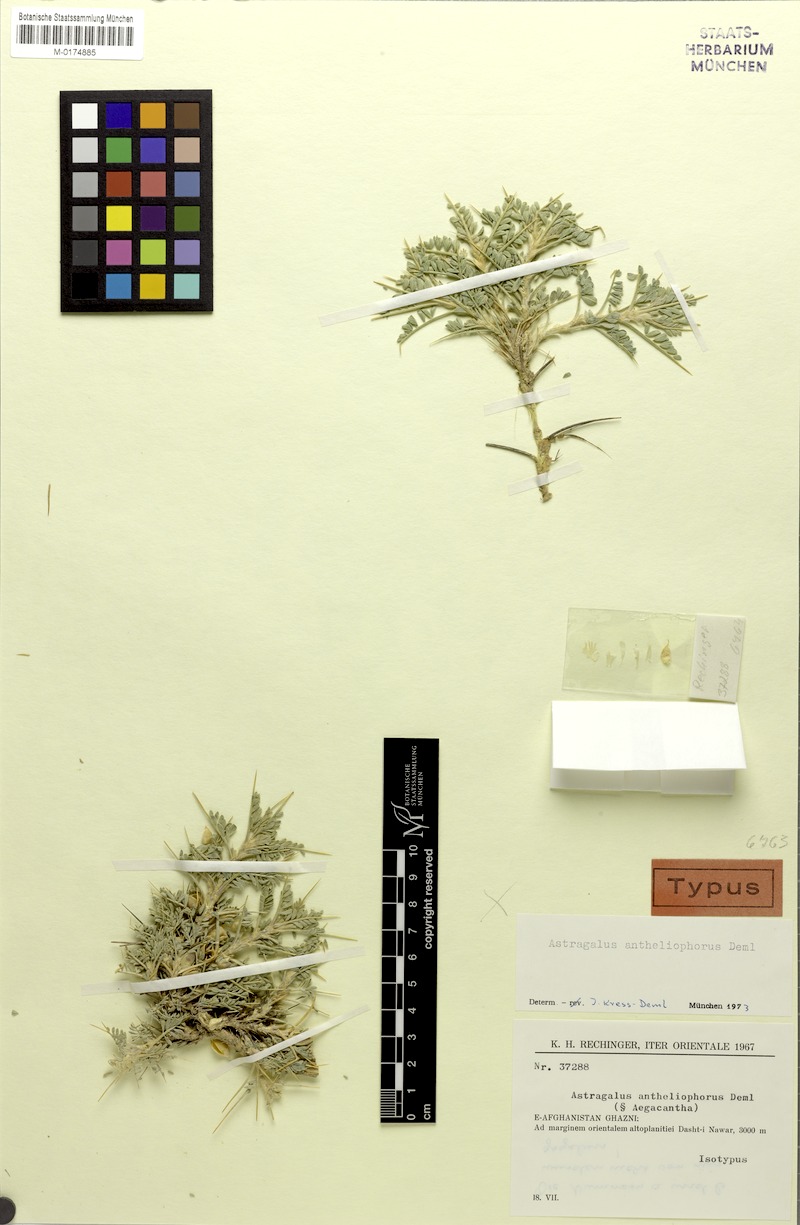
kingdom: Plantae
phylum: Tracheophyta
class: Magnoliopsida
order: Fabales
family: Fabaceae
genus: Astragalus
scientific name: Astragalus antheliophorus
